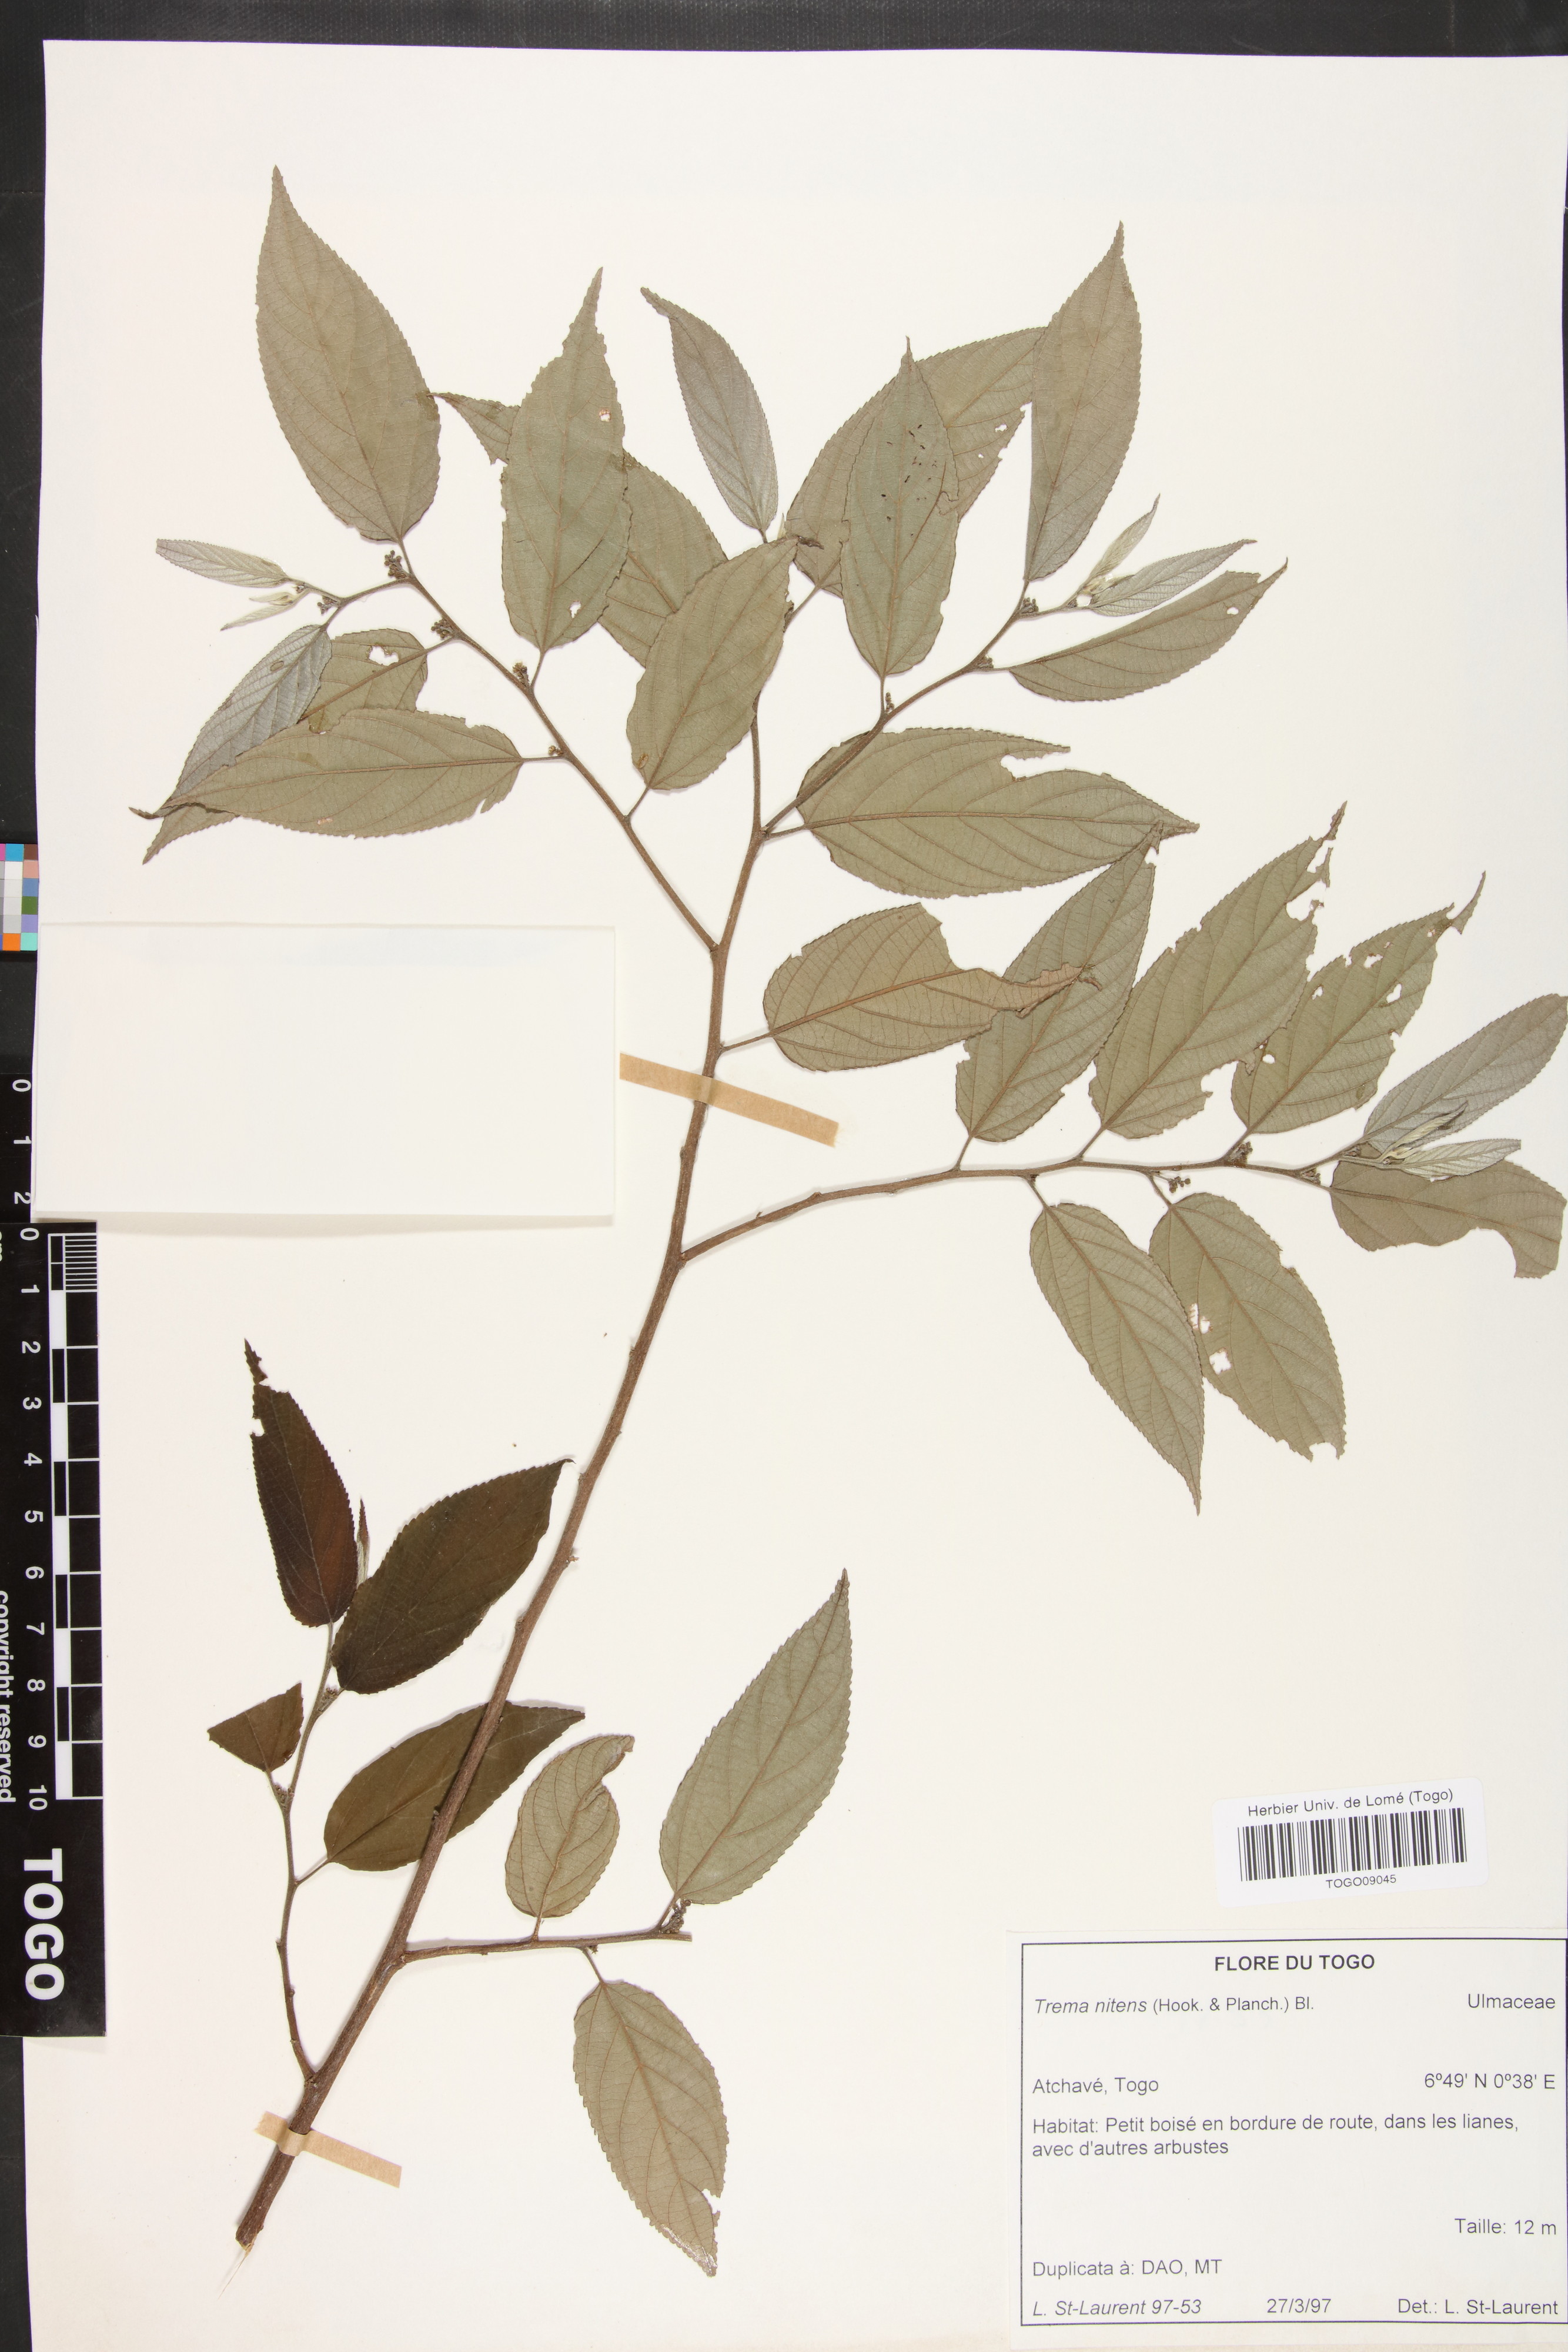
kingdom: Plantae
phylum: Tracheophyta
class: Magnoliopsida
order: Rosales
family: Cannabaceae
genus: Trema
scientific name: Trema orientale
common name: Indian charcoal tree
